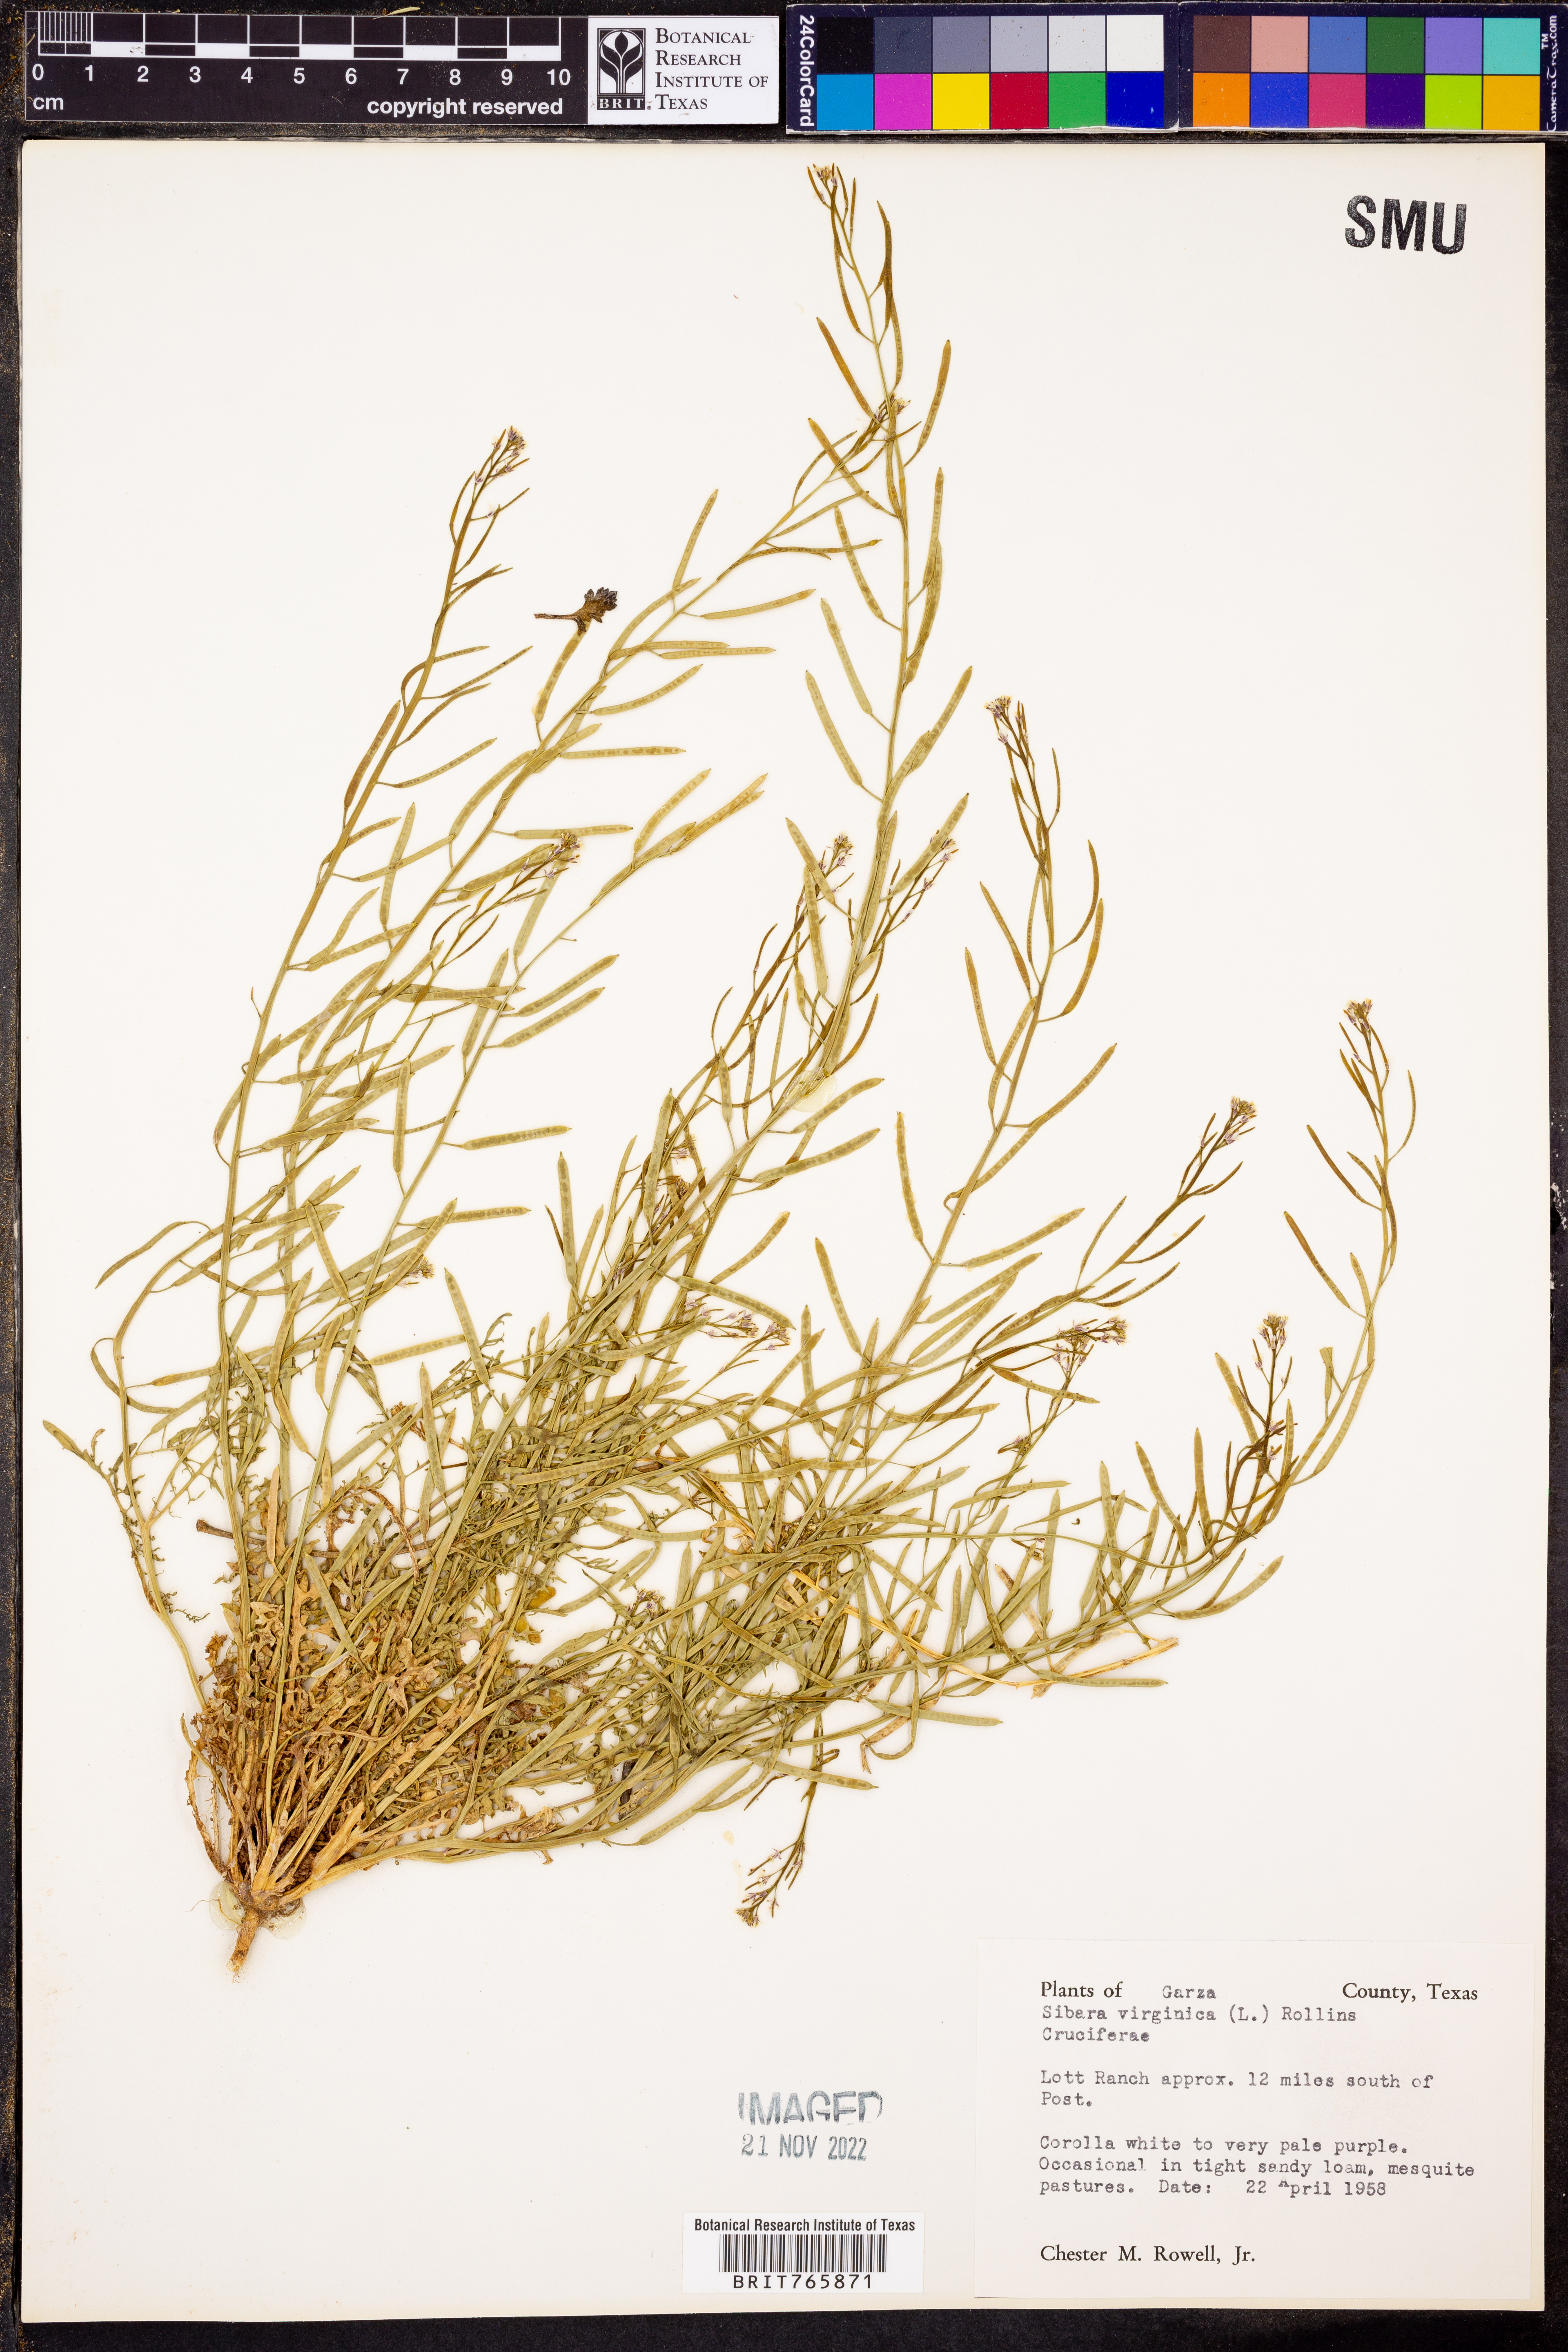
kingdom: Plantae
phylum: Tracheophyta
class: Magnoliopsida
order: Brassicales
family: Brassicaceae
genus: Planodes
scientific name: Planodes virginicum
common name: Virginia cress
